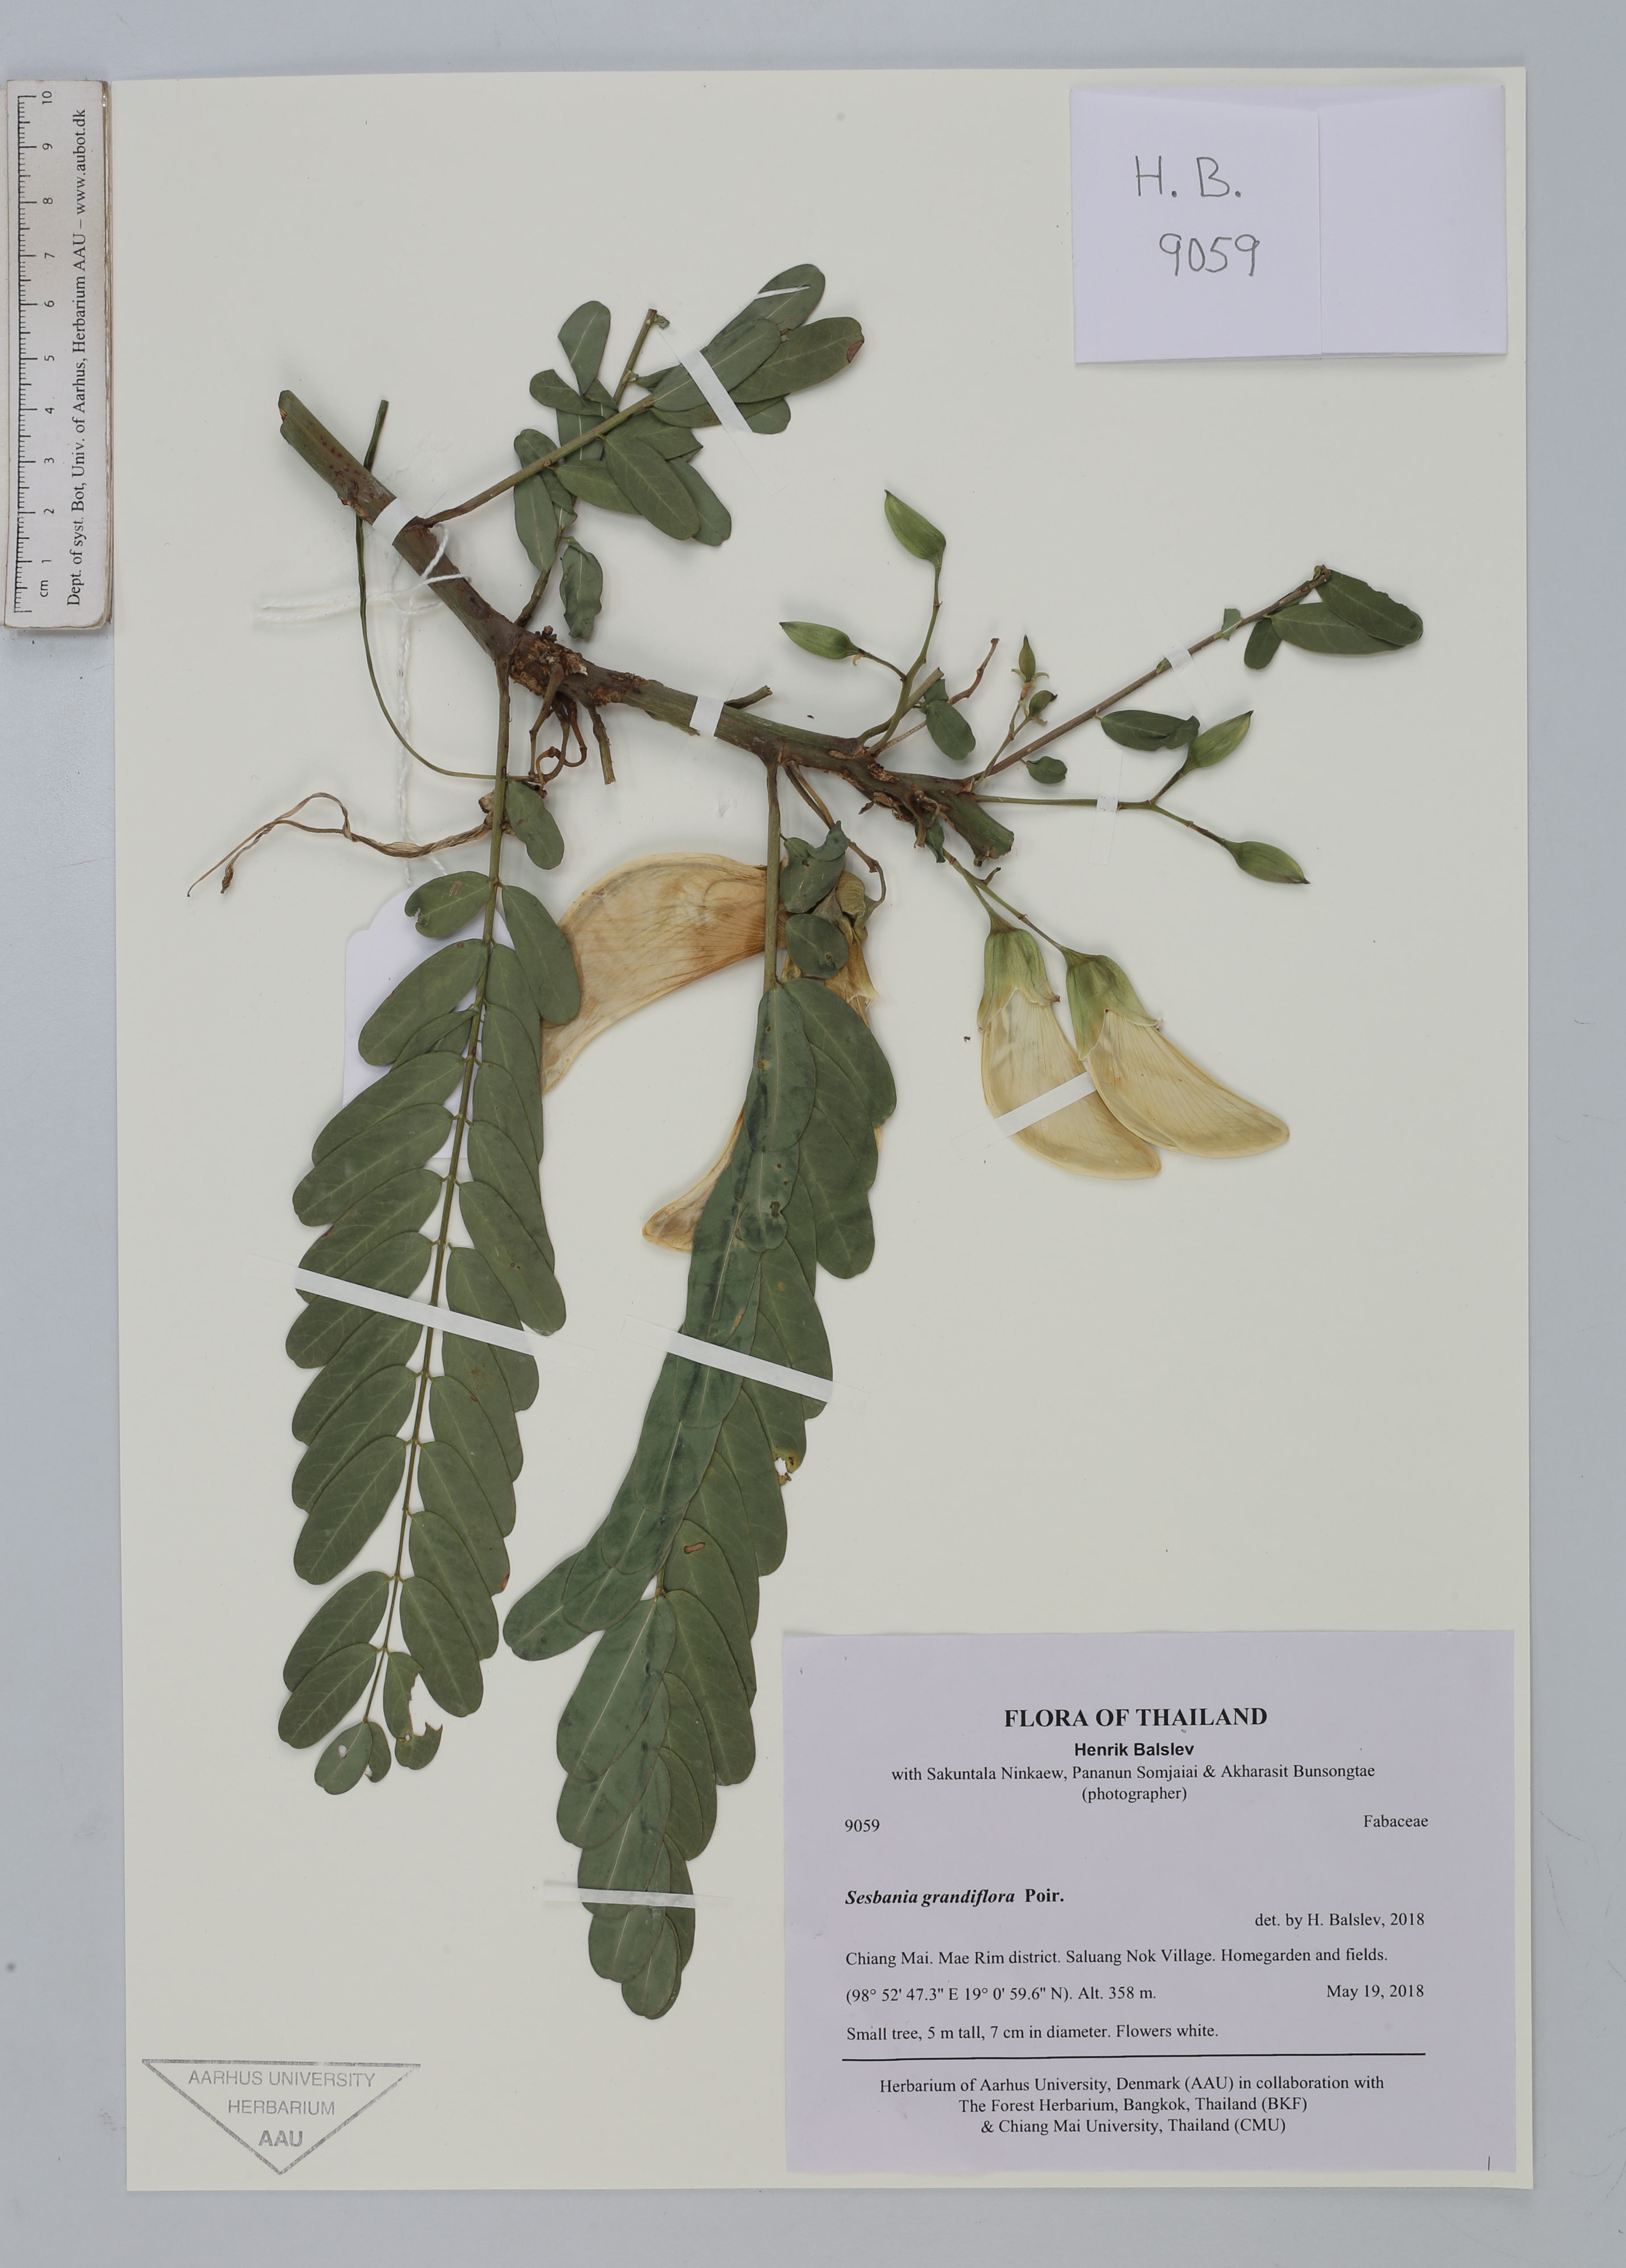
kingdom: Plantae
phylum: Tracheophyta
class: Magnoliopsida
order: Fabales
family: Fabaceae
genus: Sesbania
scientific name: Sesbania grandiflora
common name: Vegetable-hummingbird
